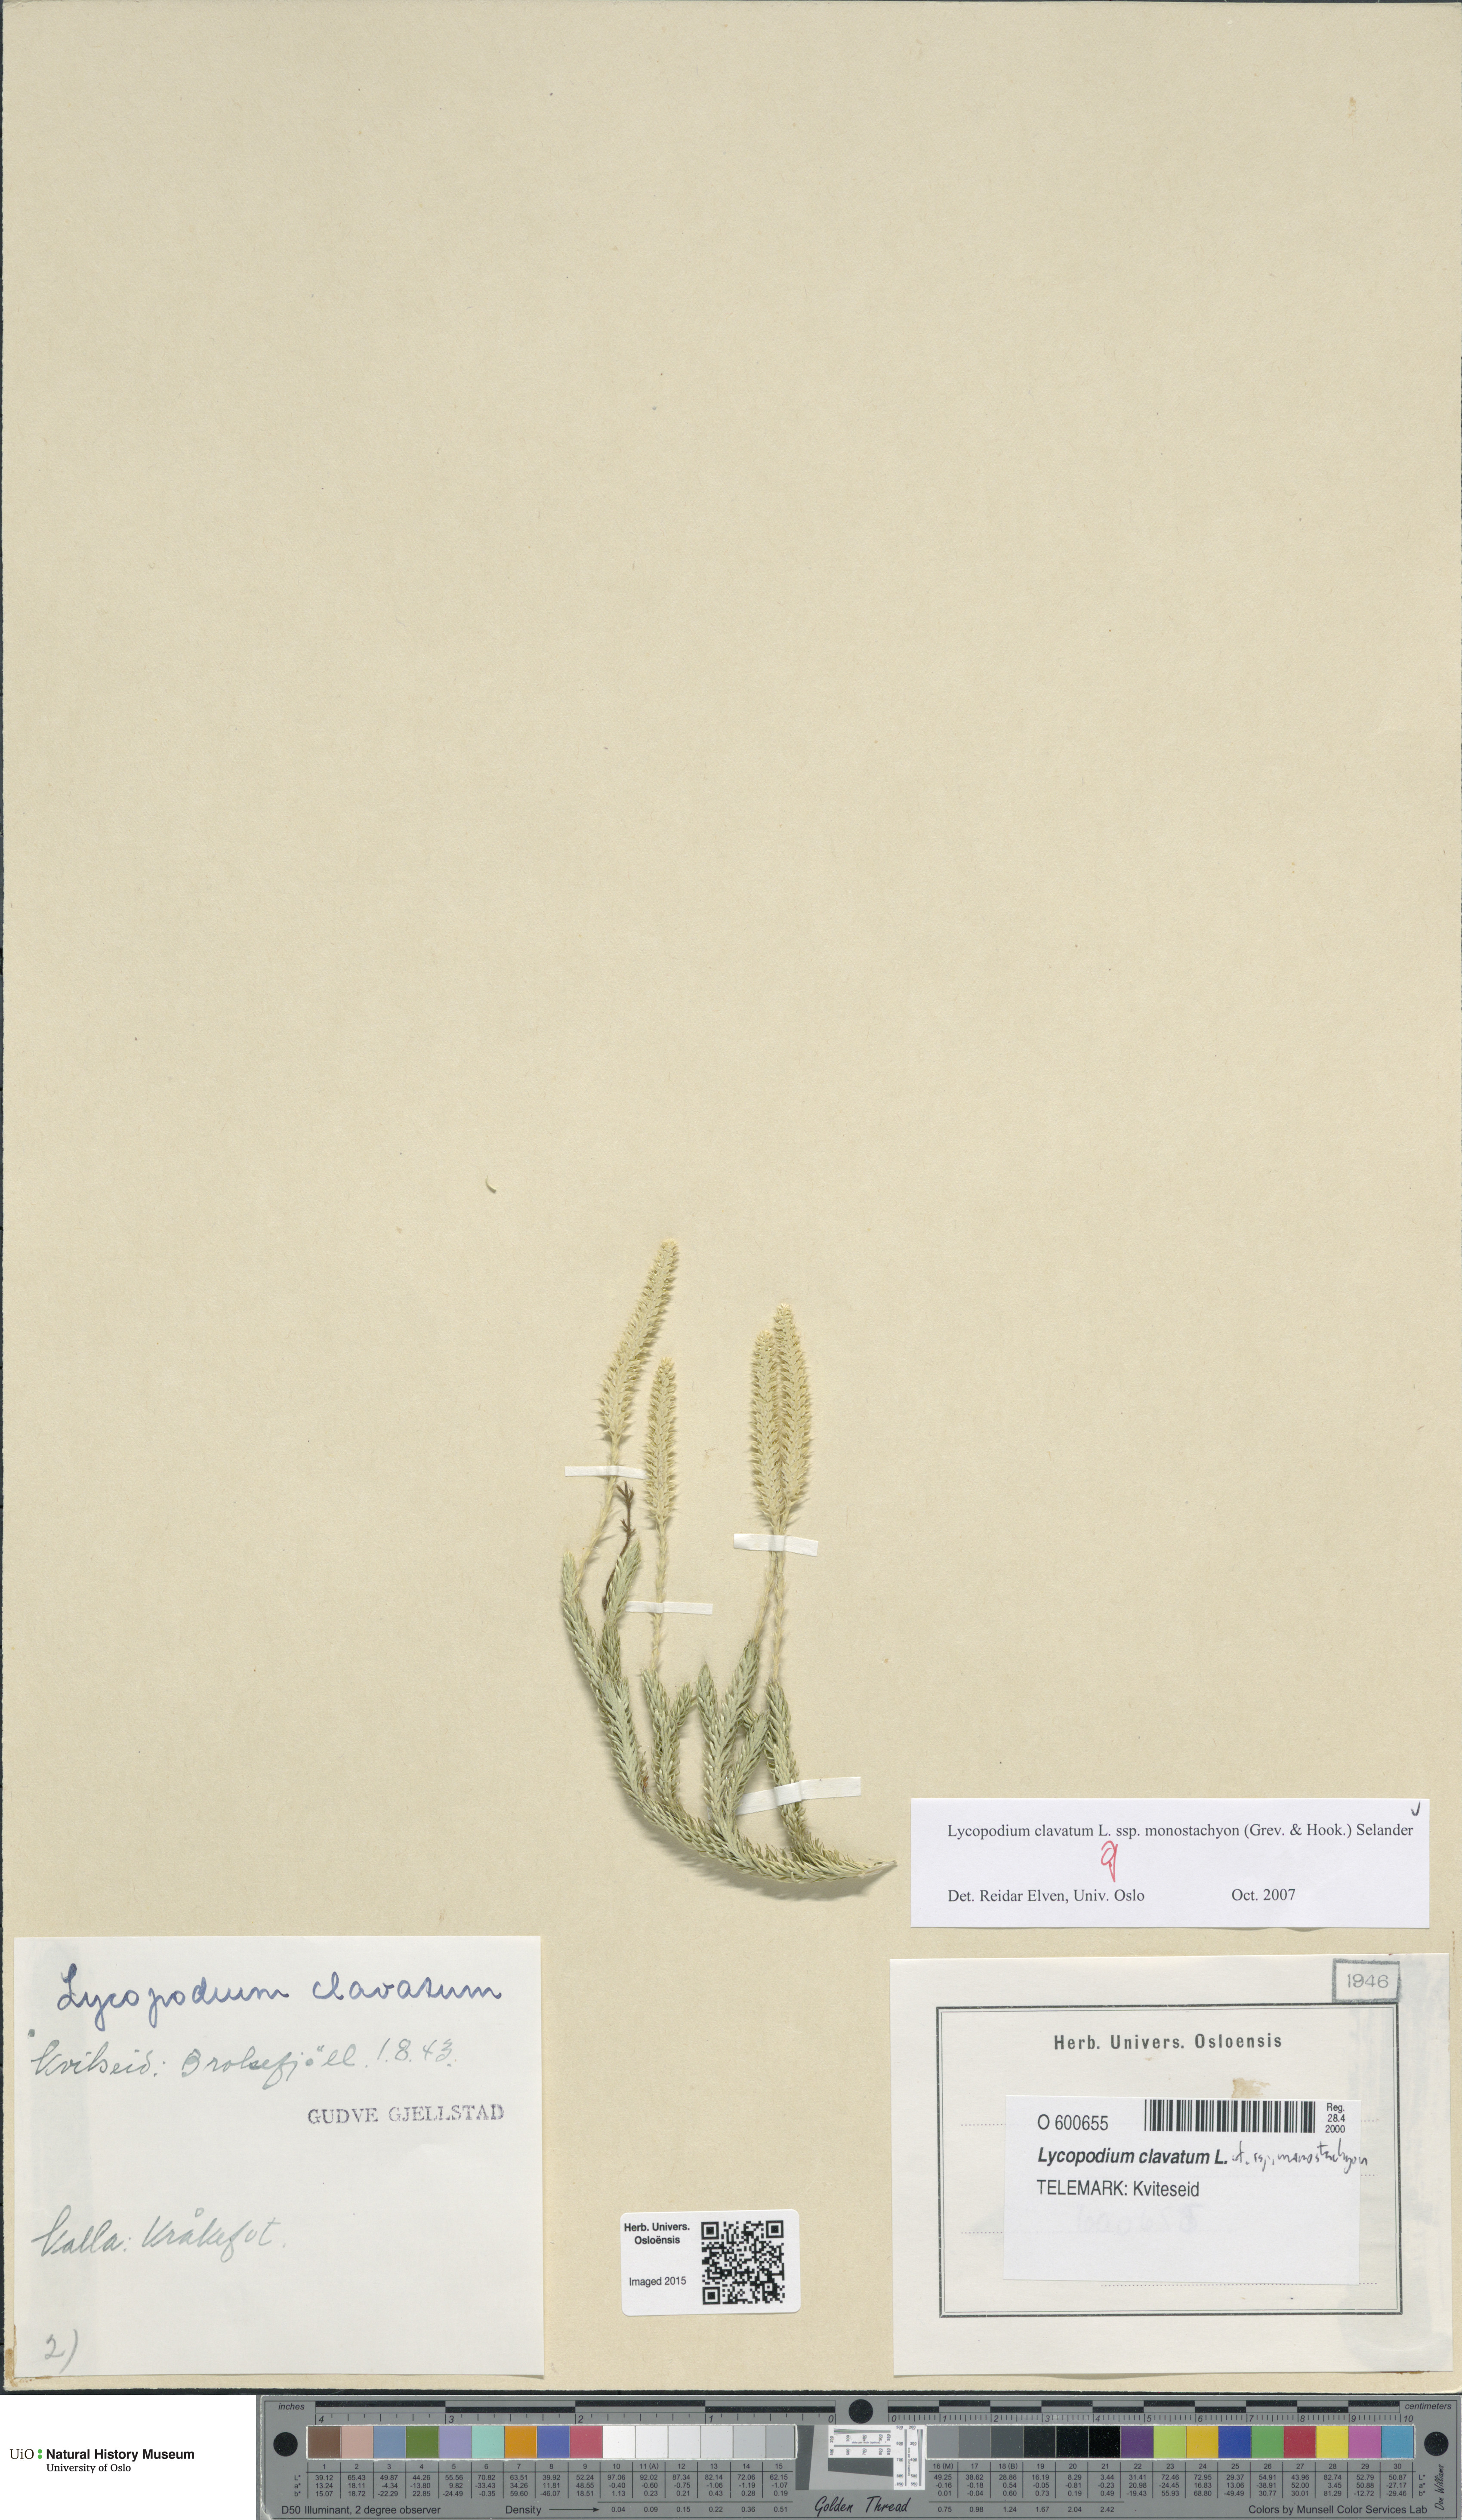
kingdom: Plantae
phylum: Tracheophyta
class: Lycopodiopsida
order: Lycopodiales
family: Lycopodiaceae
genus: Lycopodium
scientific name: Lycopodium lagopus
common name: One-cone clubmoss
